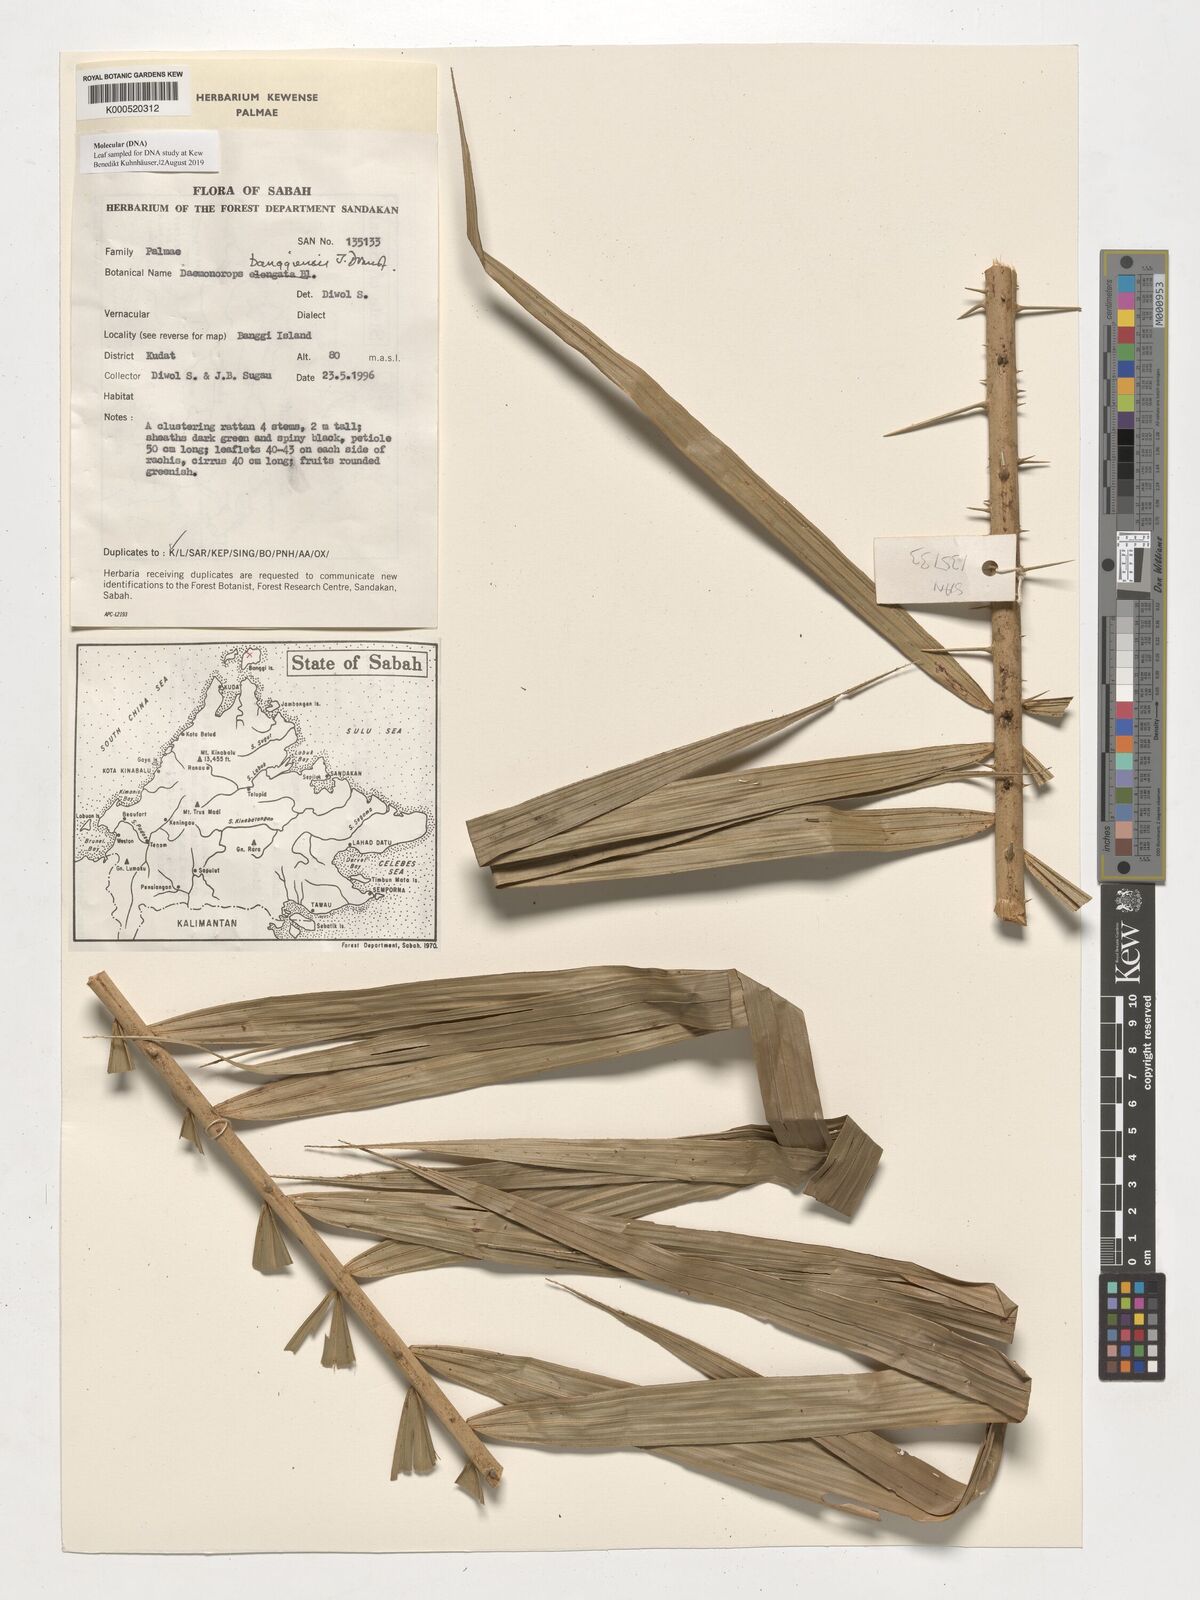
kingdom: Plantae
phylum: Tracheophyta
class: Liliopsida
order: Arecales
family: Arecaceae
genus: Calamus
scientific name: Calamus banggiensis
